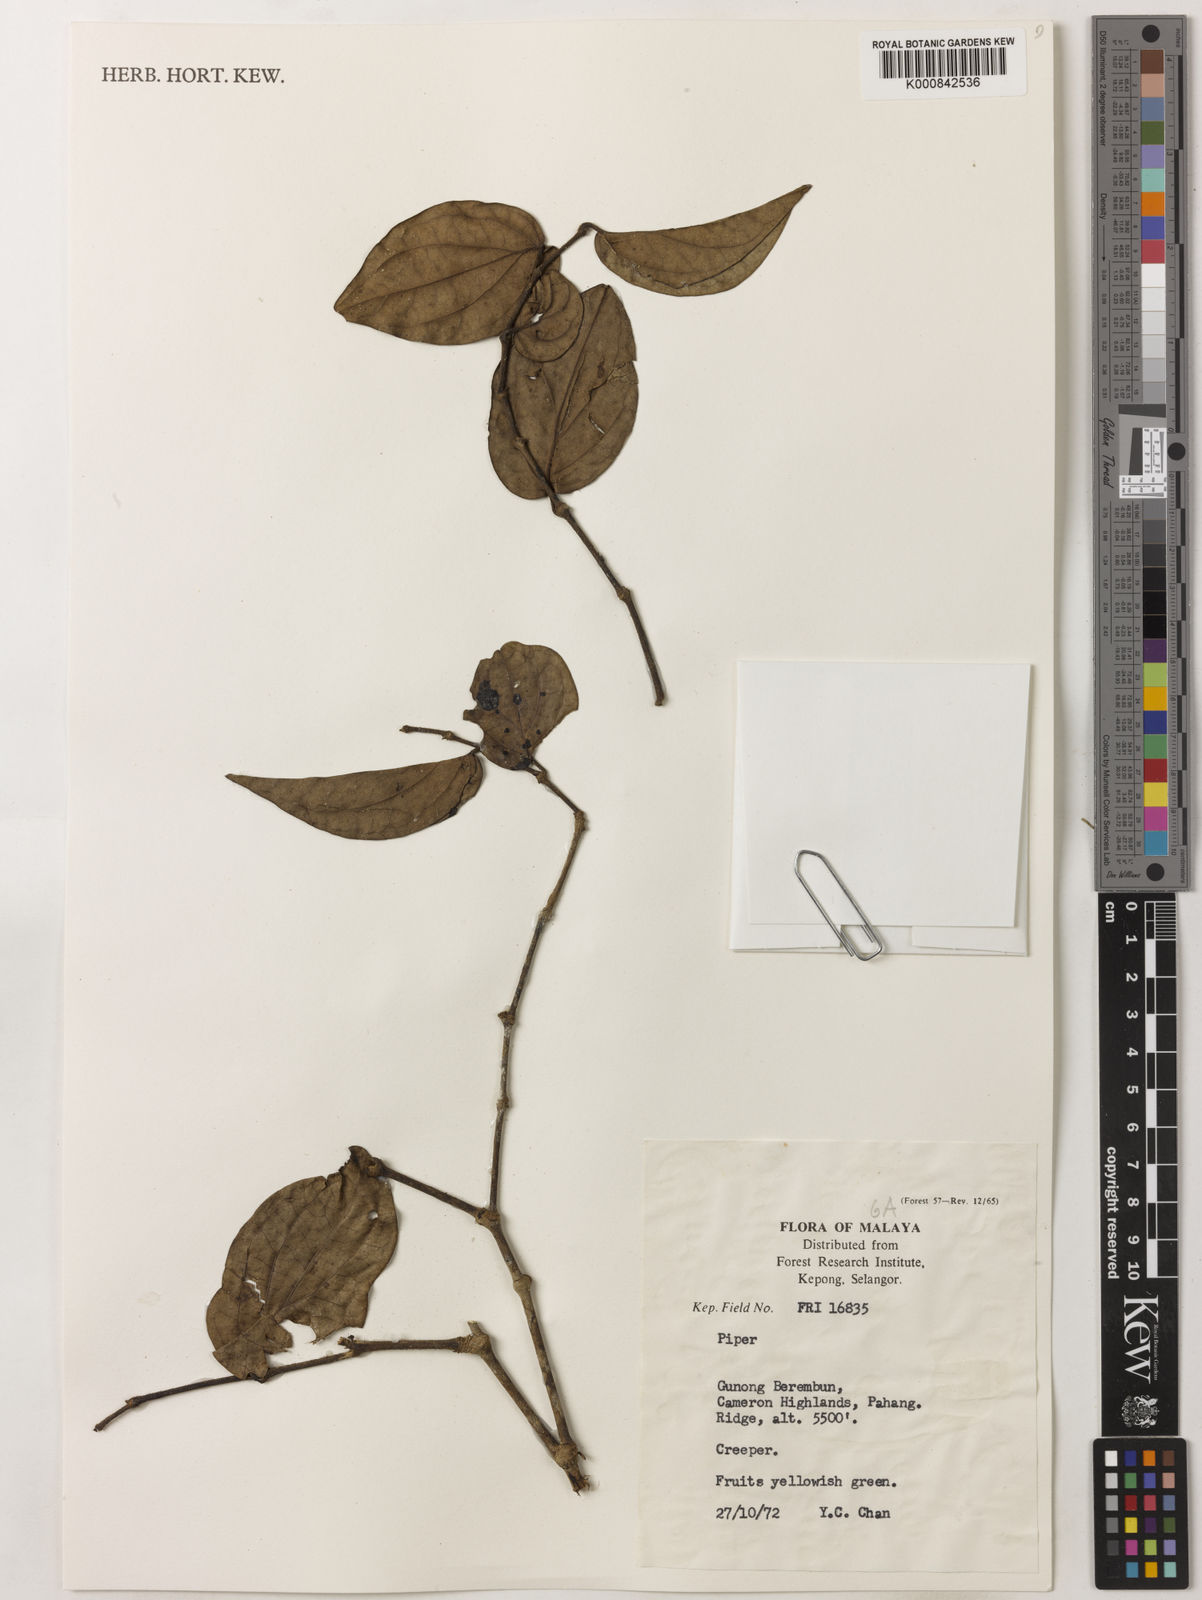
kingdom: Plantae
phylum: Tracheophyta
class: Magnoliopsida
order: Piperales
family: Piperaceae
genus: Piper
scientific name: Piper
